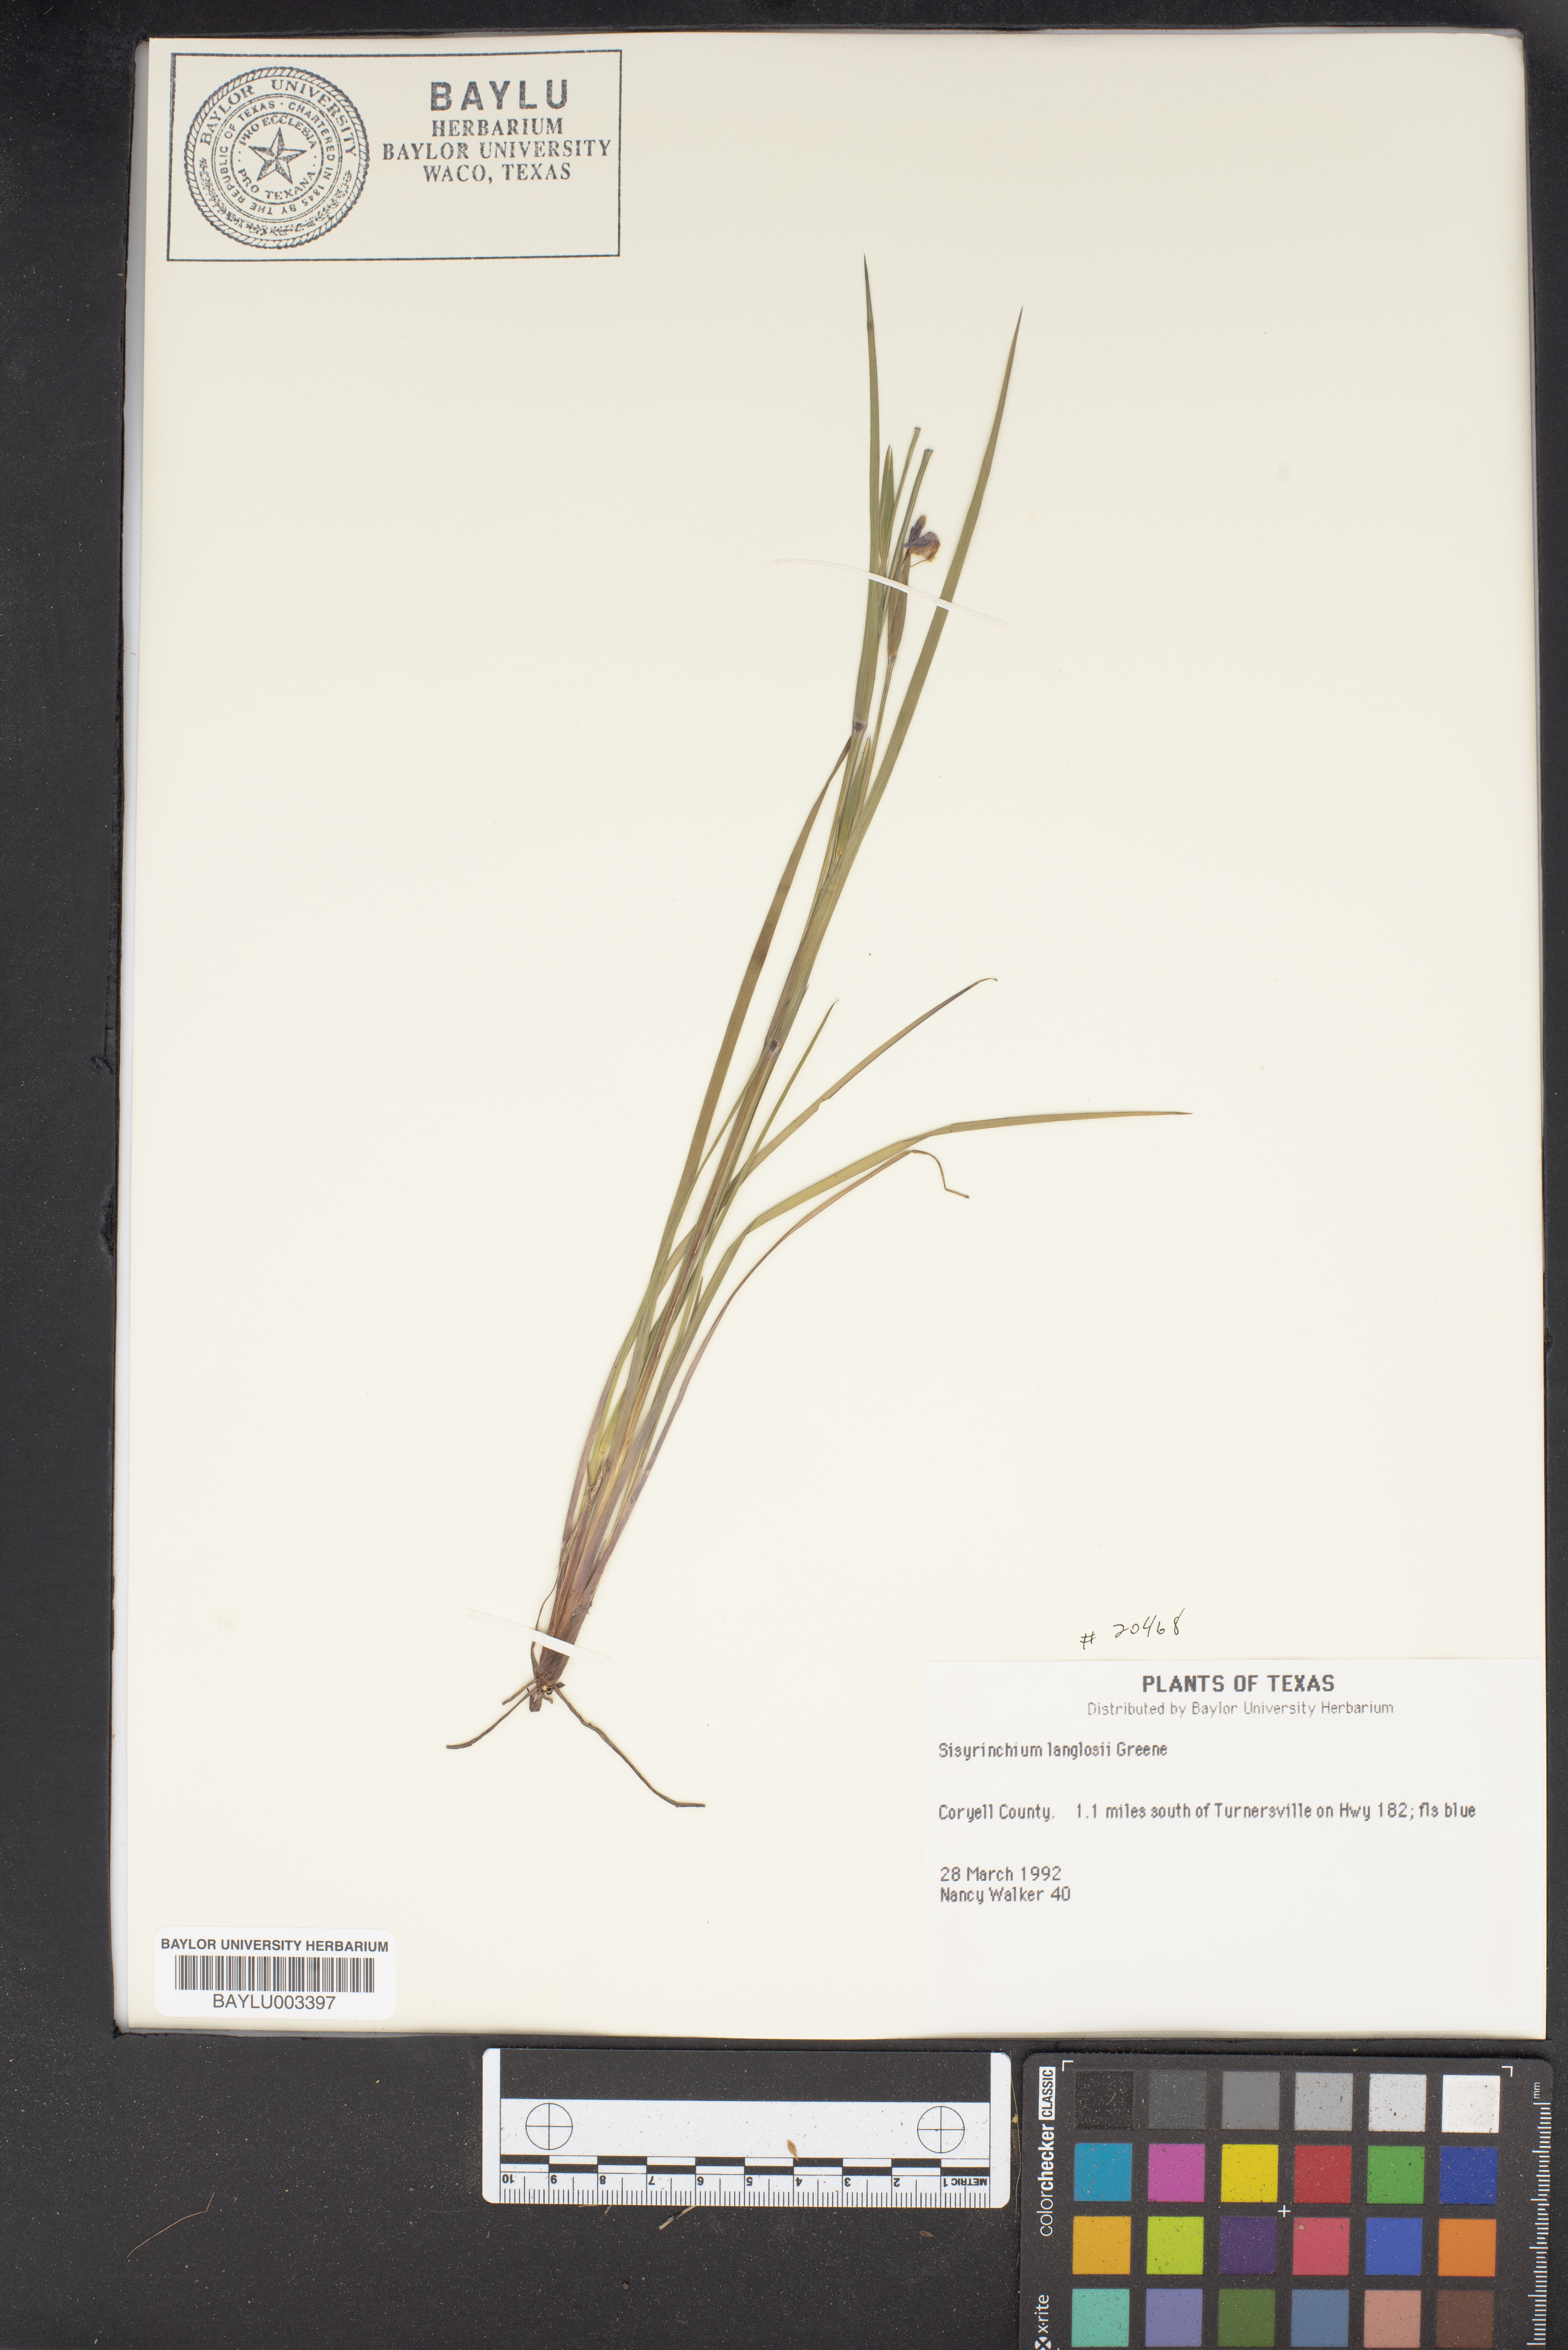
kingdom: Plantae
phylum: Tracheophyta
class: Liliopsida
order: Asparagales
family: Iridaceae
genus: Sisyrinchium
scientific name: Sisyrinchium langloisii
